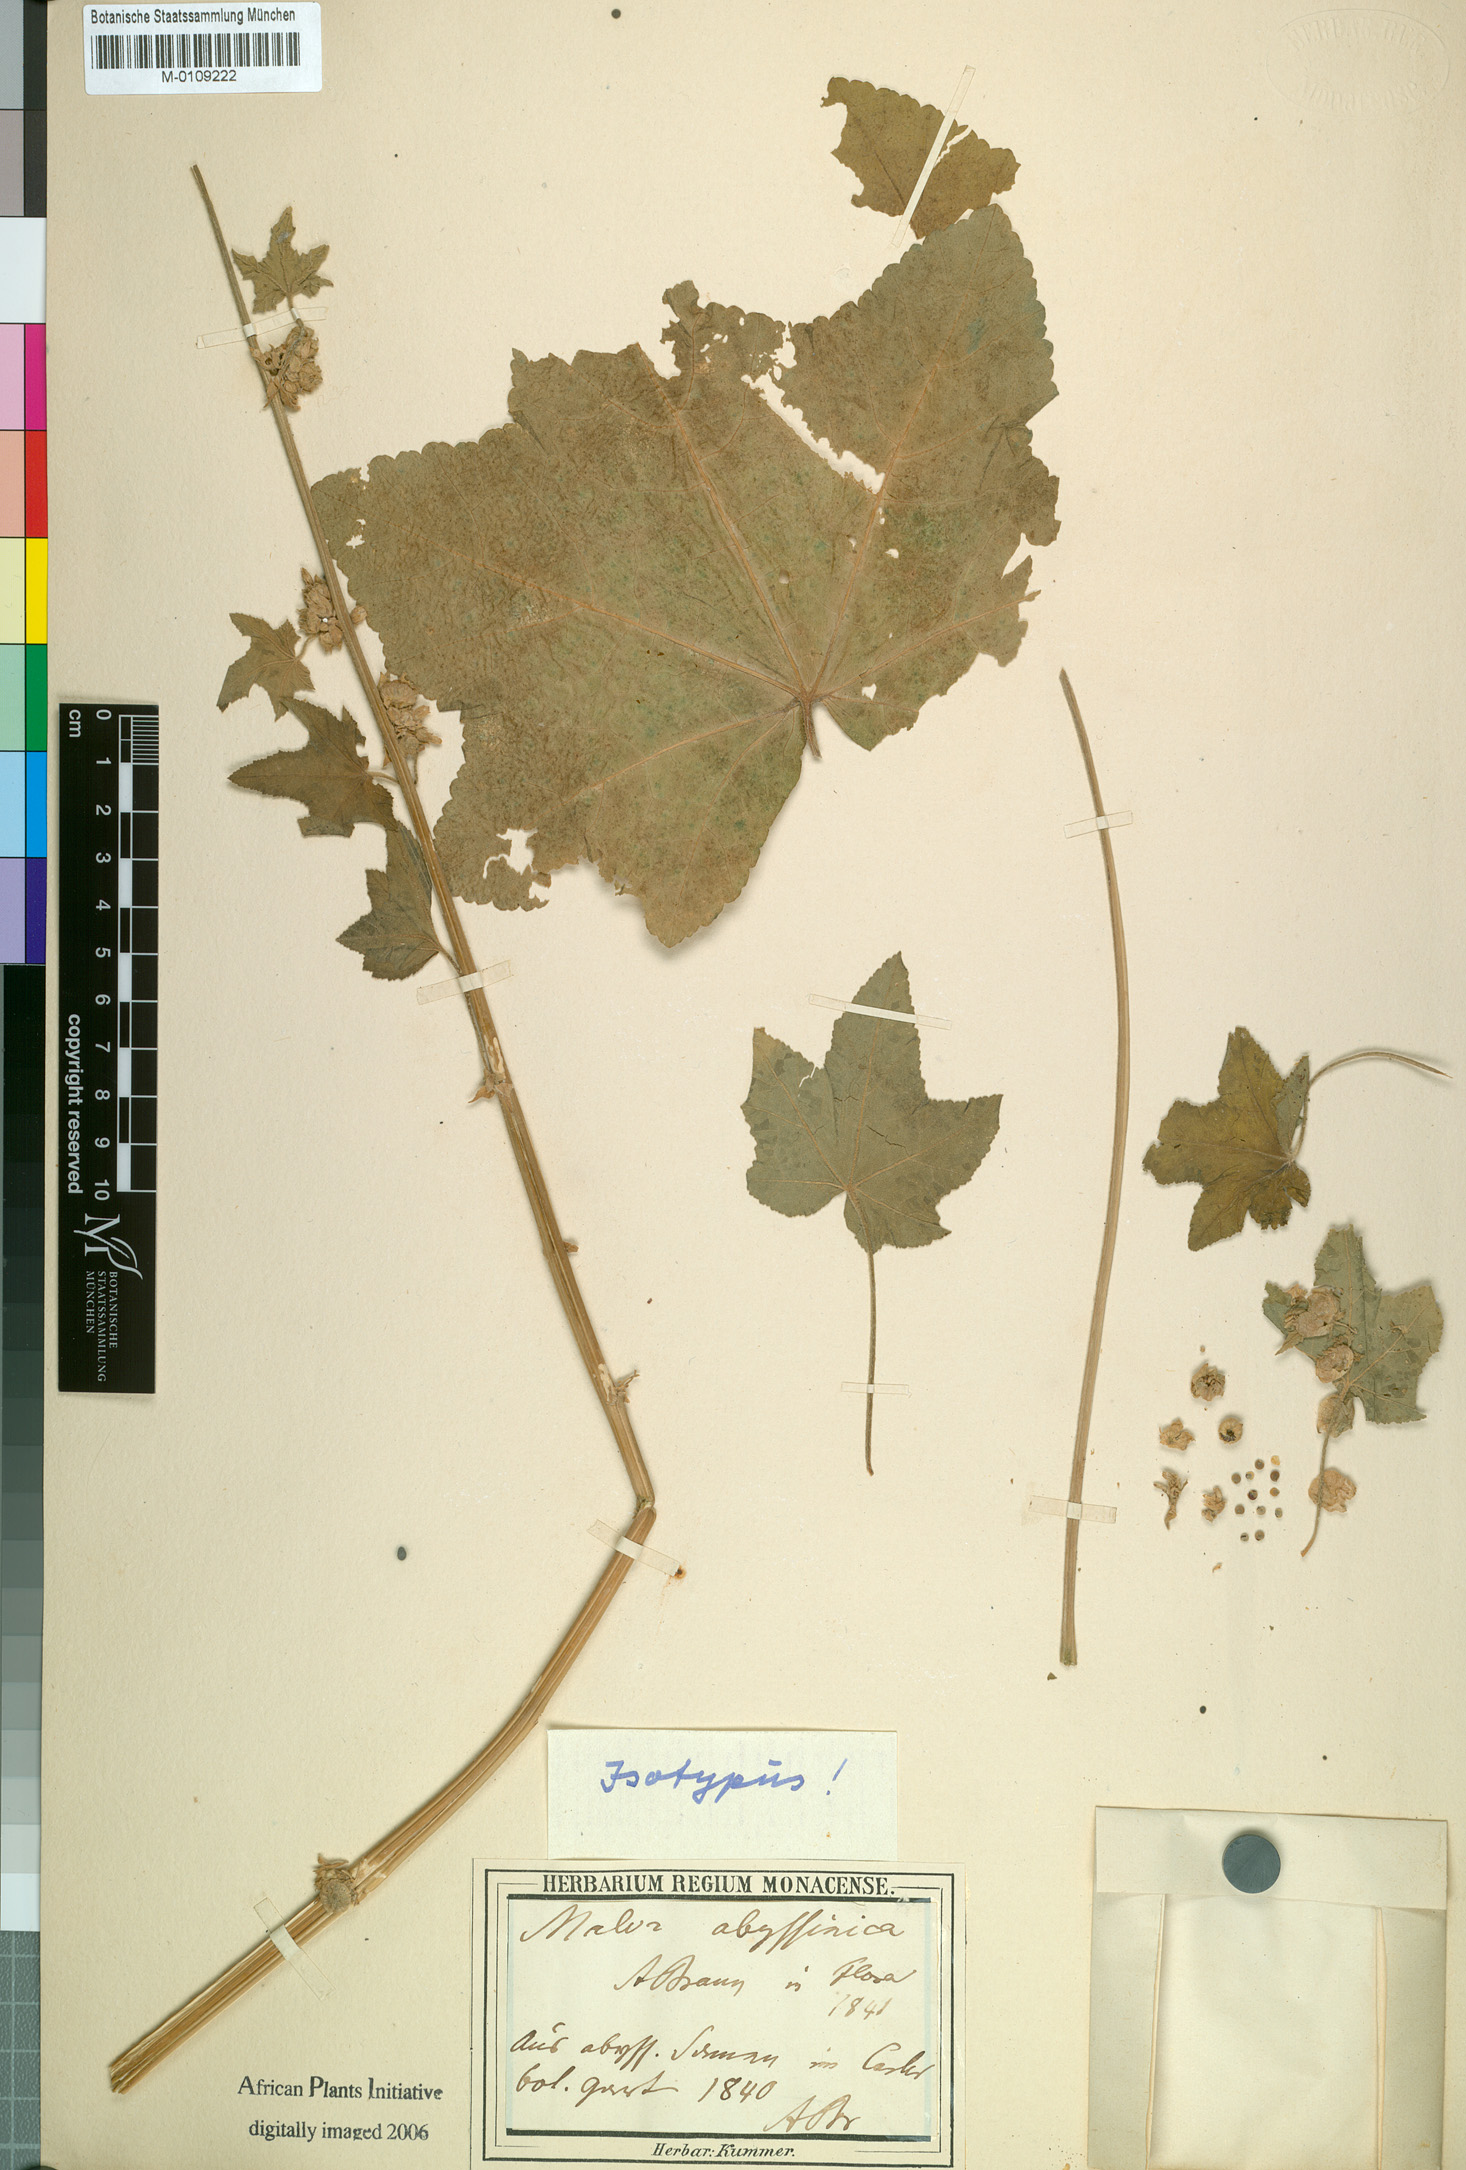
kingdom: Plantae
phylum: Tracheophyta
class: Magnoliopsida
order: Malvales
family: Malvaceae
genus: Malva
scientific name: Malva verticillata
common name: Chinese mallow
